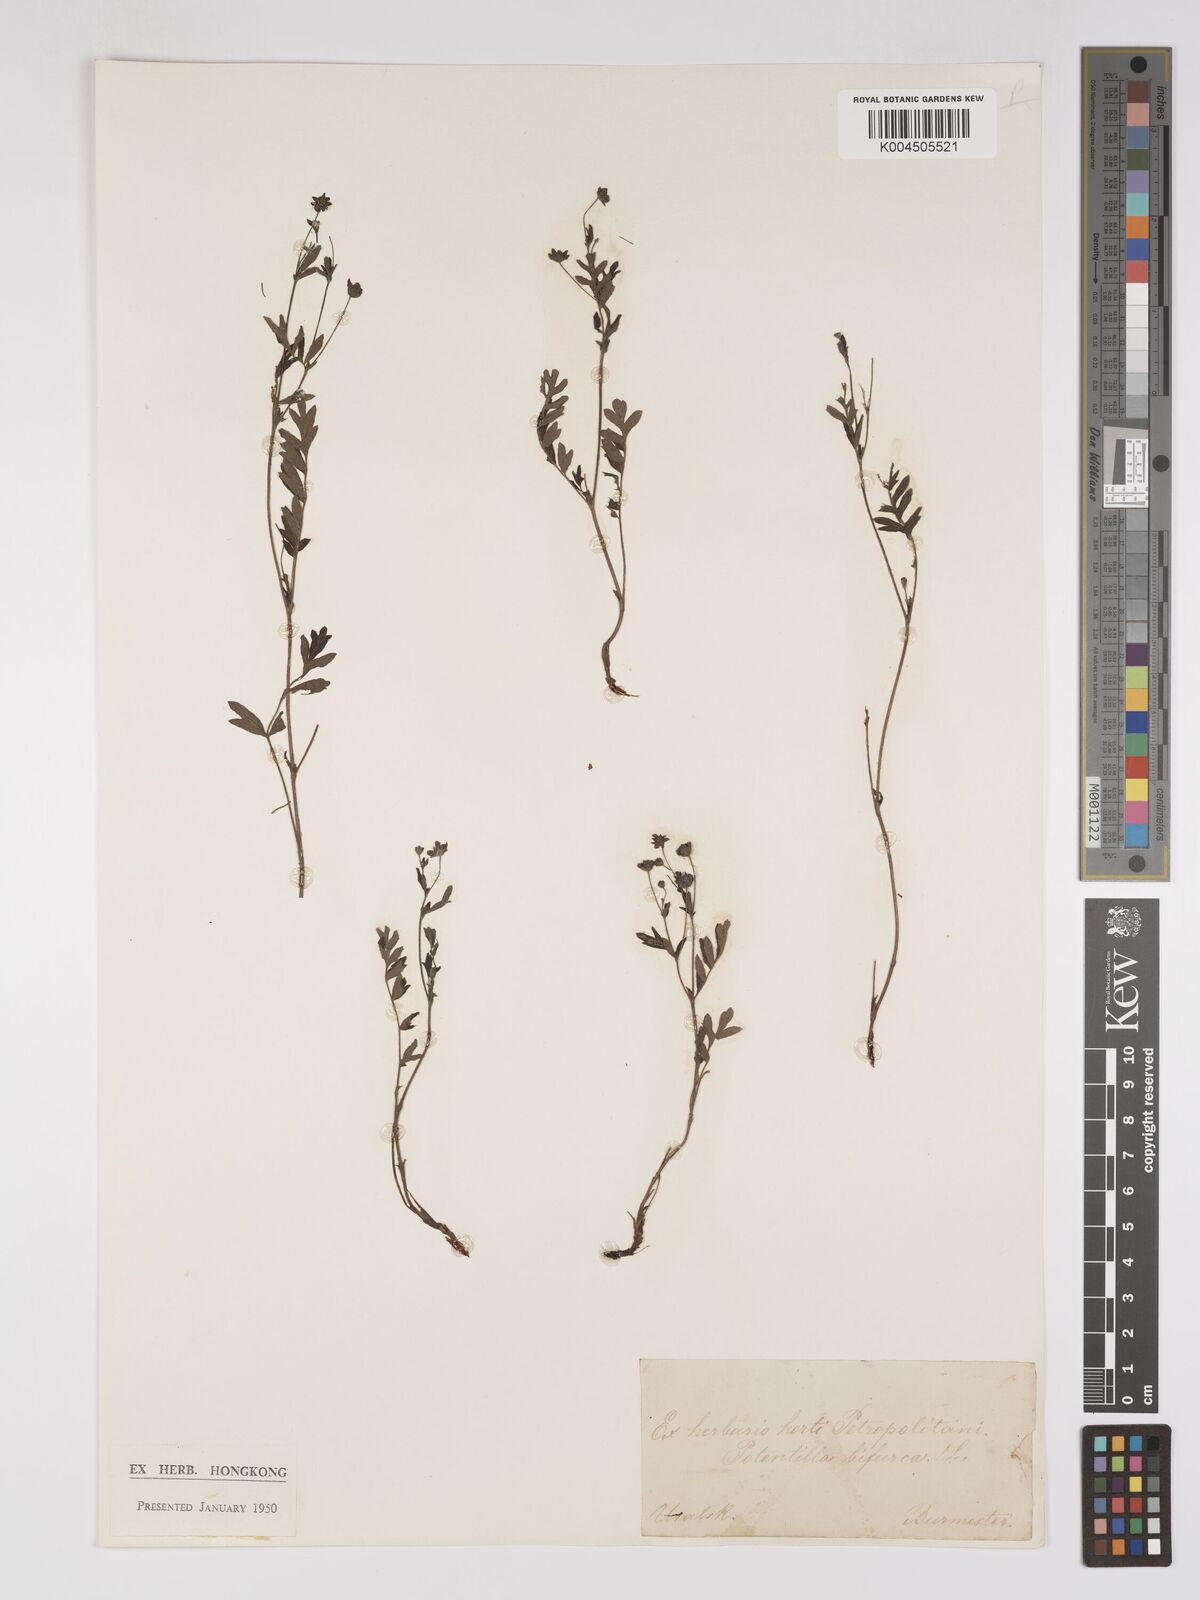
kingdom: Plantae
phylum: Tracheophyta
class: Magnoliopsida
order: Rosales
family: Rosaceae
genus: Sibbaldianthe
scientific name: Sibbaldianthe bifurca
